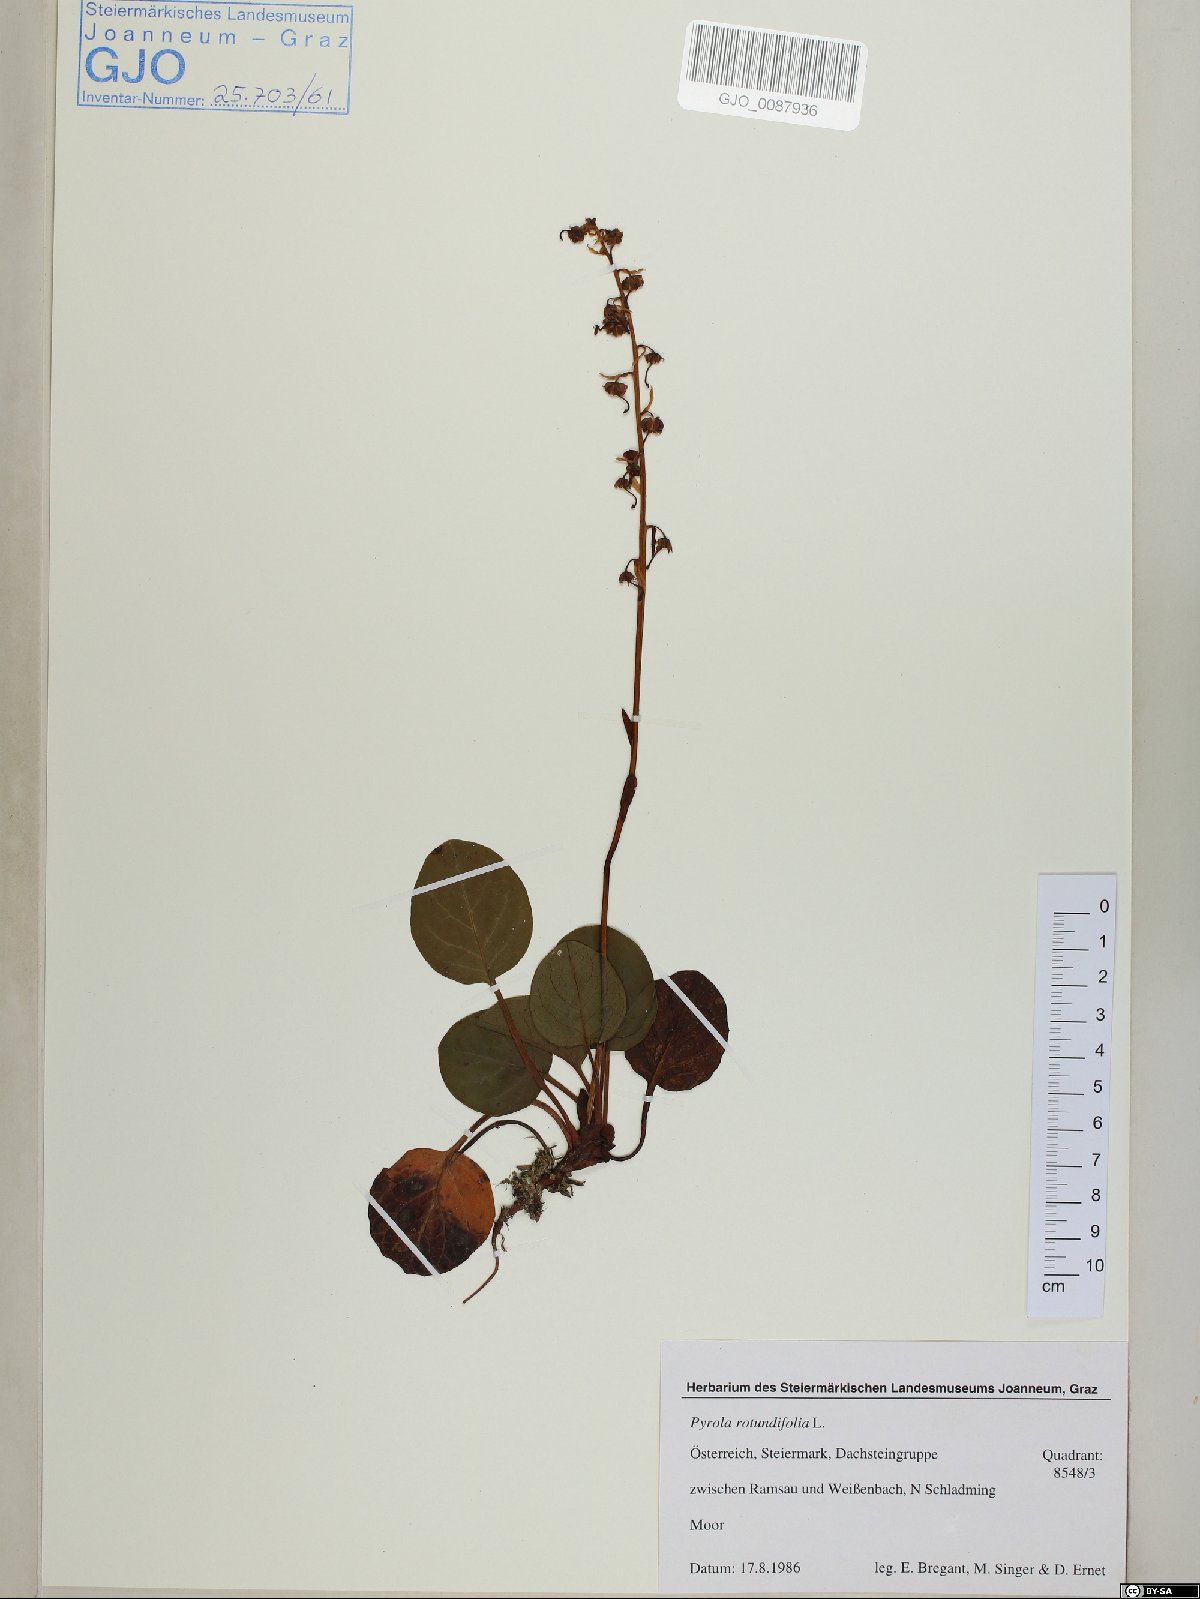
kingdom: Plantae
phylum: Tracheophyta
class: Magnoliopsida
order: Ericales
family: Ericaceae
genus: Pyrola
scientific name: Pyrola rotundifolia
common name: Round-leaved wintergreen
